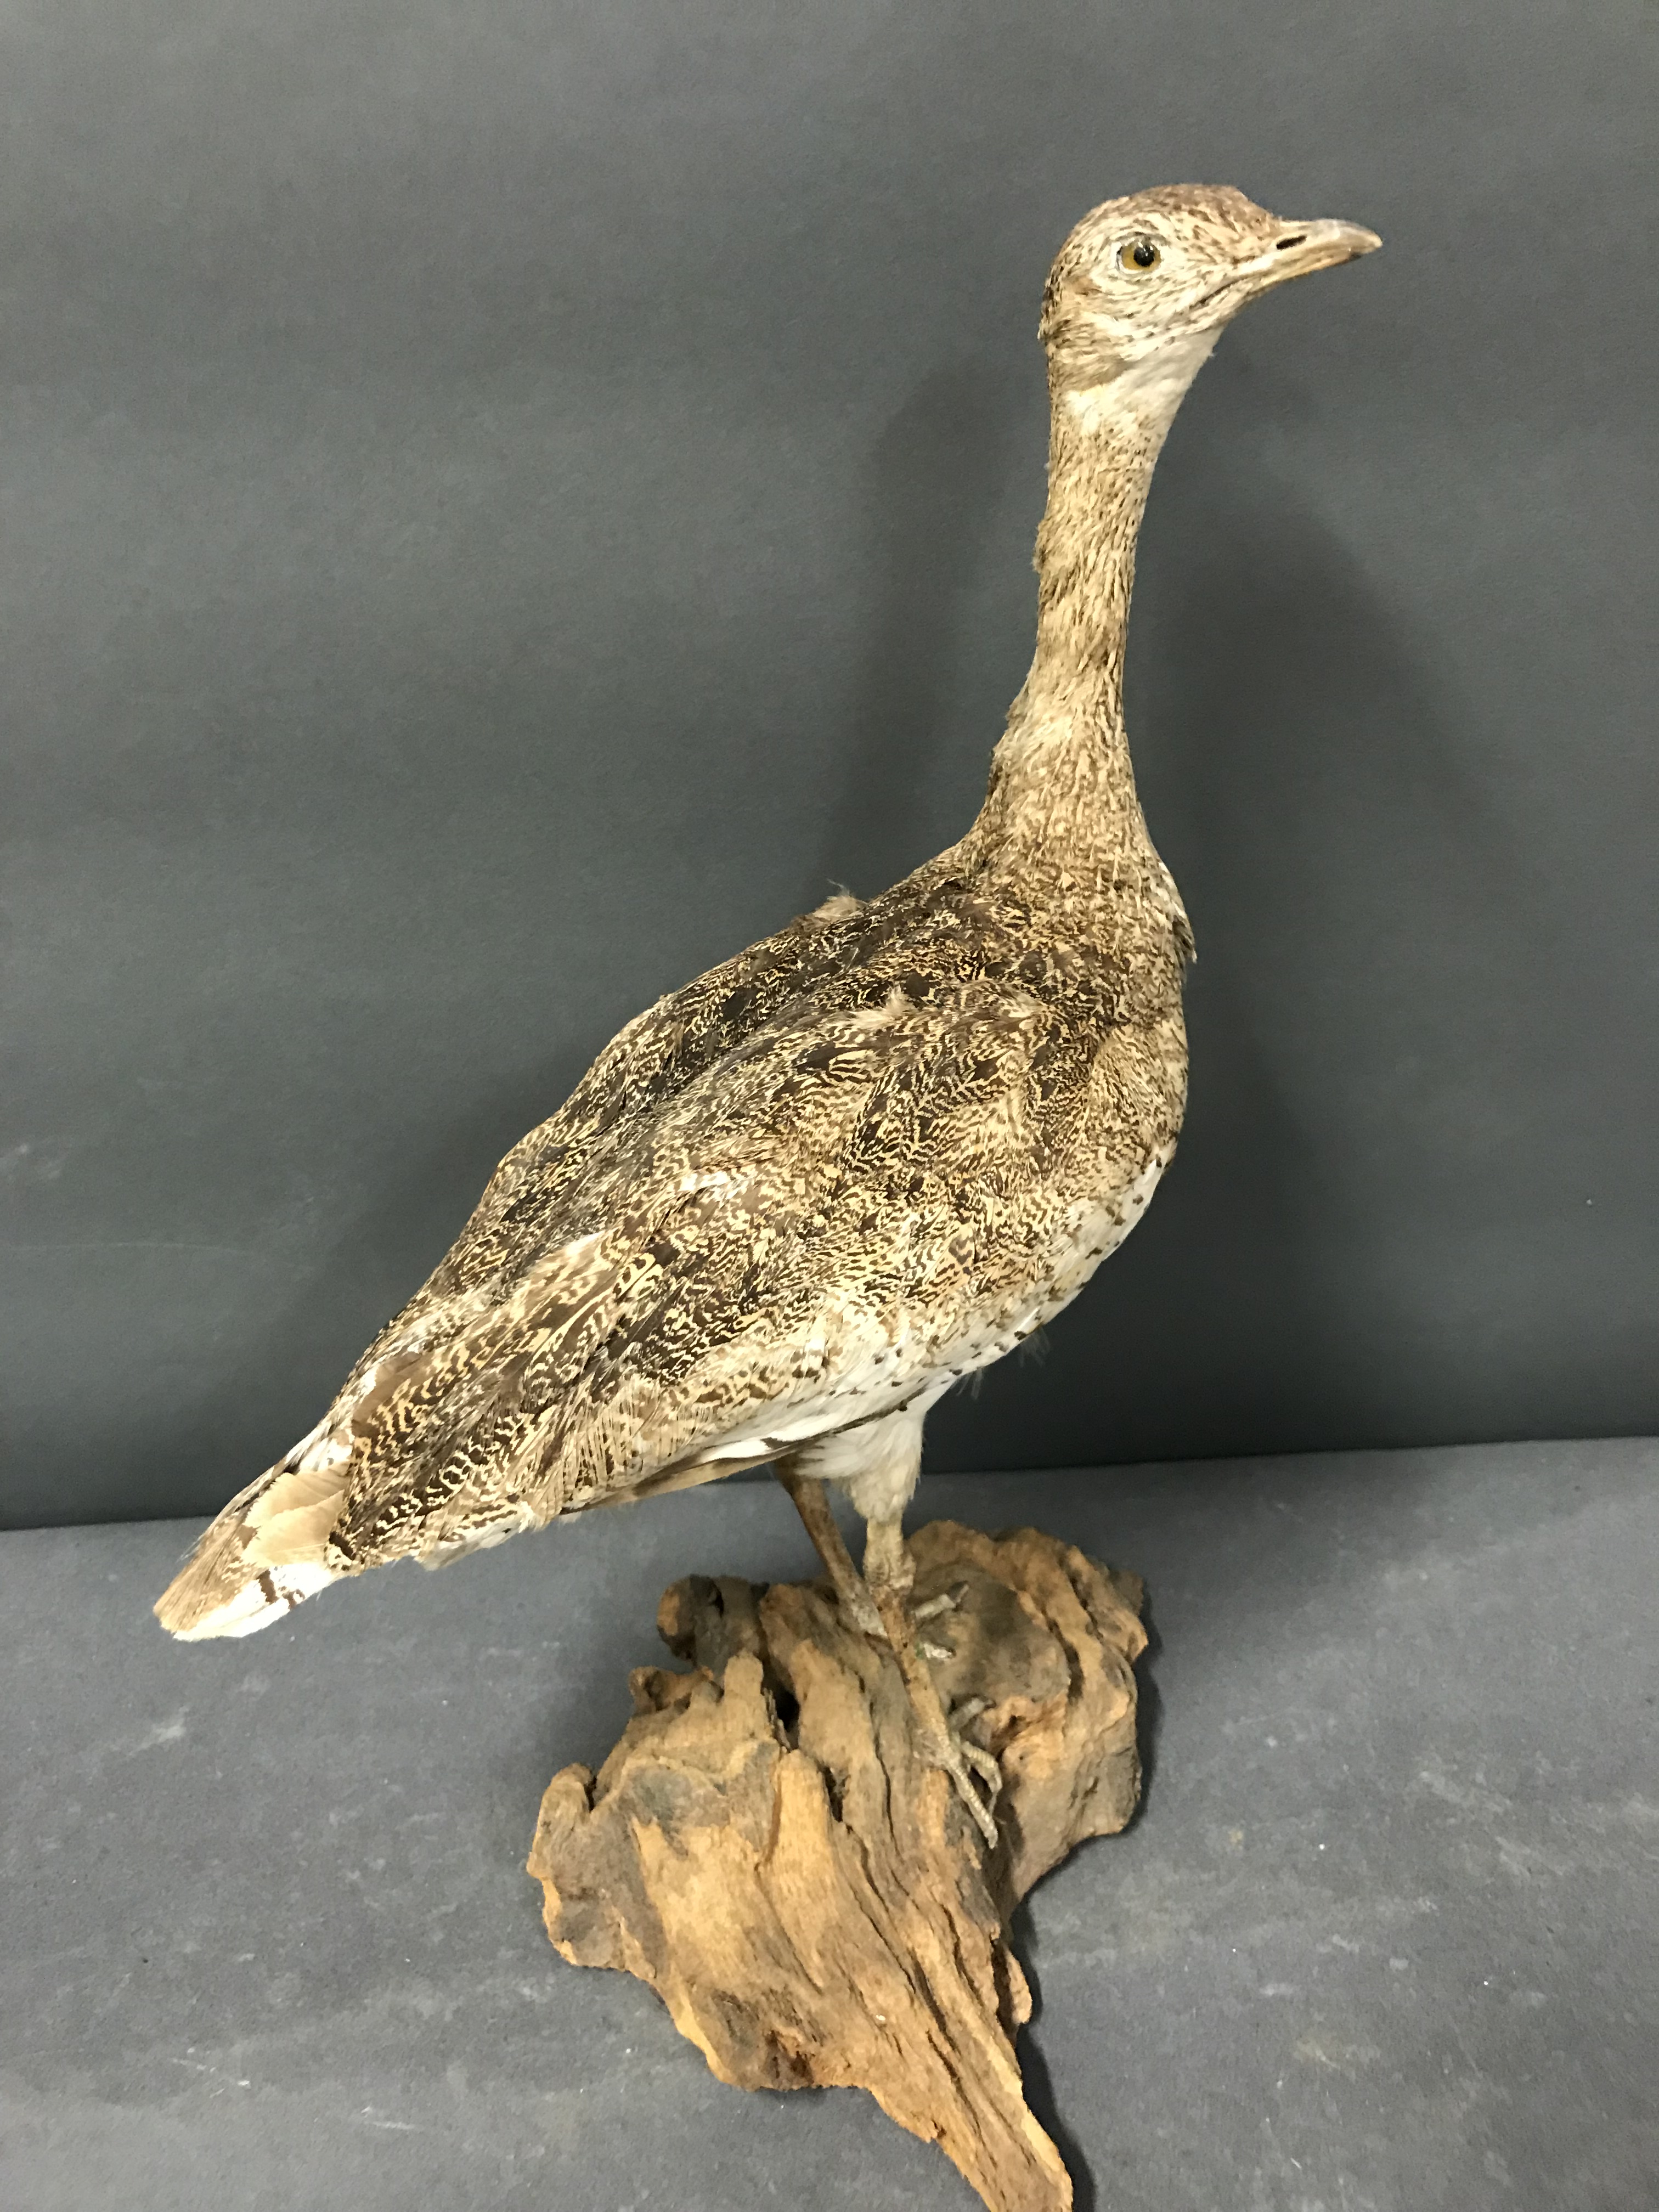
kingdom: Animalia
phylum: Chordata
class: Aves
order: Otidiformes
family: Otididae
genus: Tetrax
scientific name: Tetrax tetrax
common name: Little bustard
